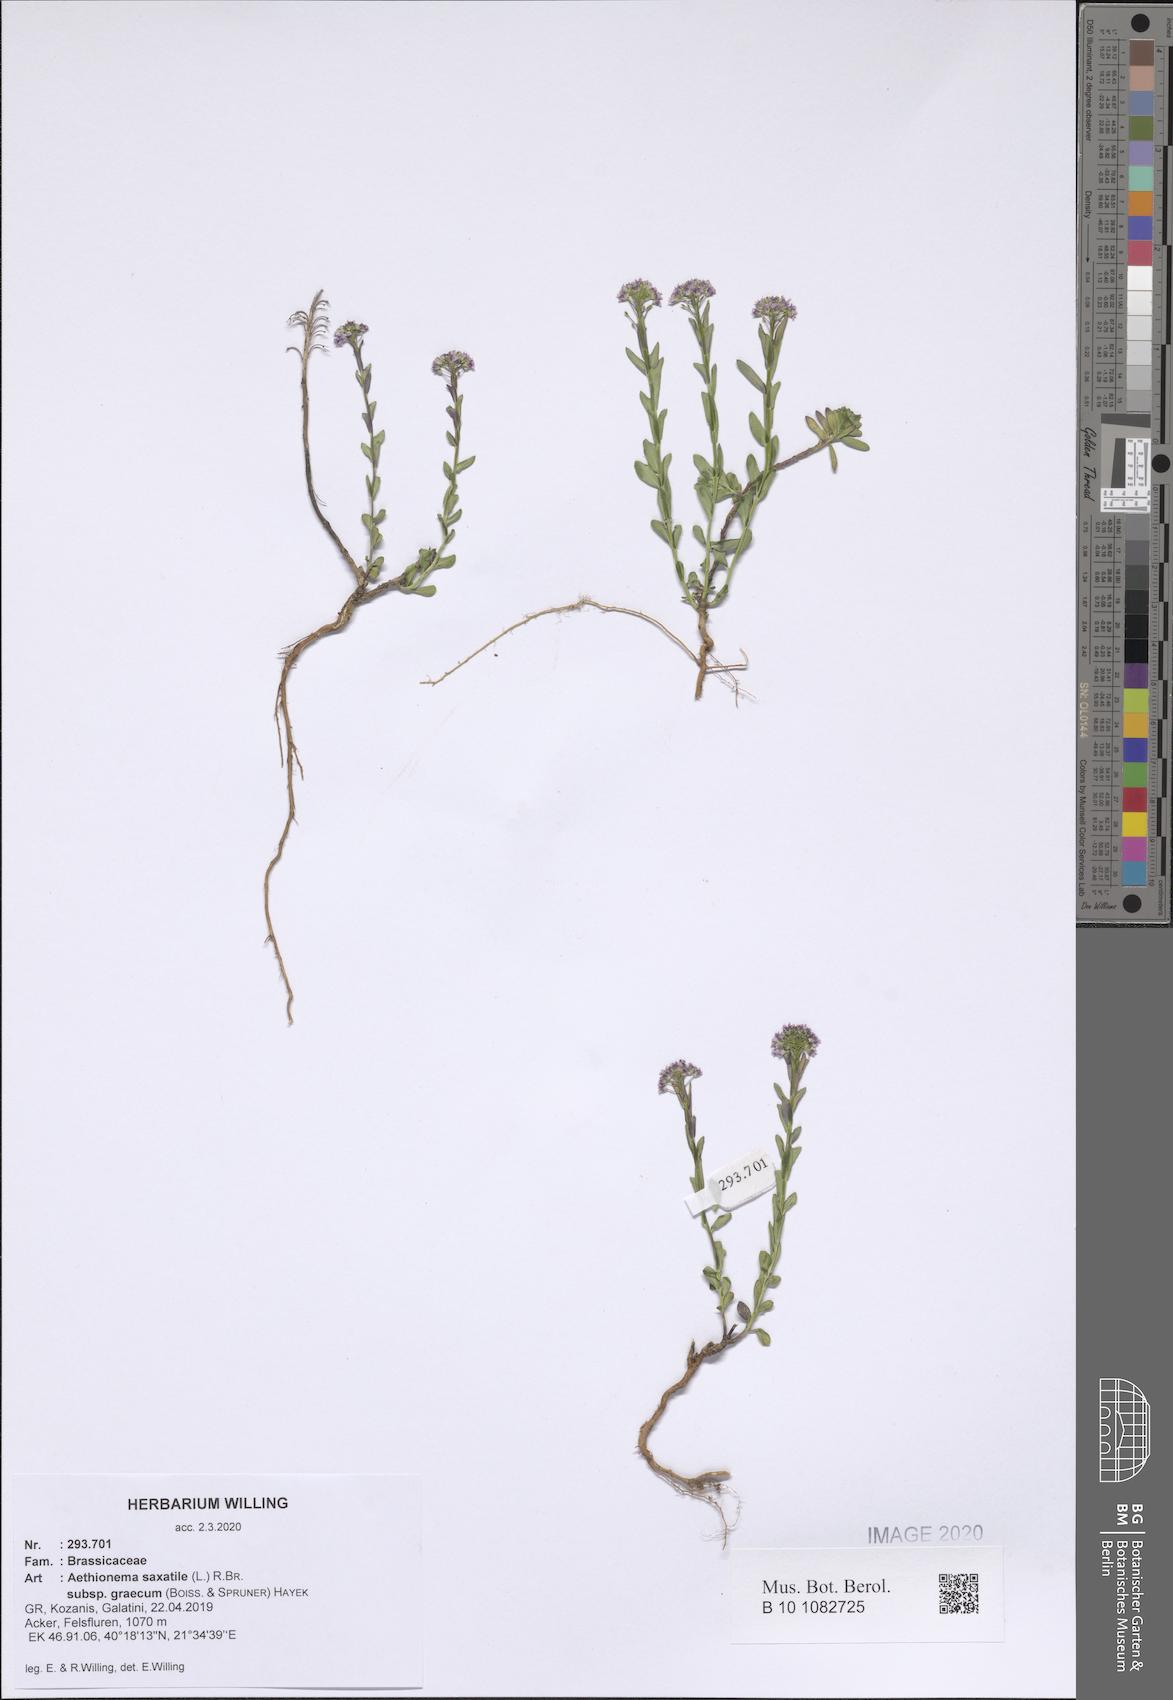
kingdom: Plantae
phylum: Tracheophyta
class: Magnoliopsida
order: Brassicales
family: Brassicaceae
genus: Aethionema
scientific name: Aethionema saxatile
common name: Burnt candytuft
